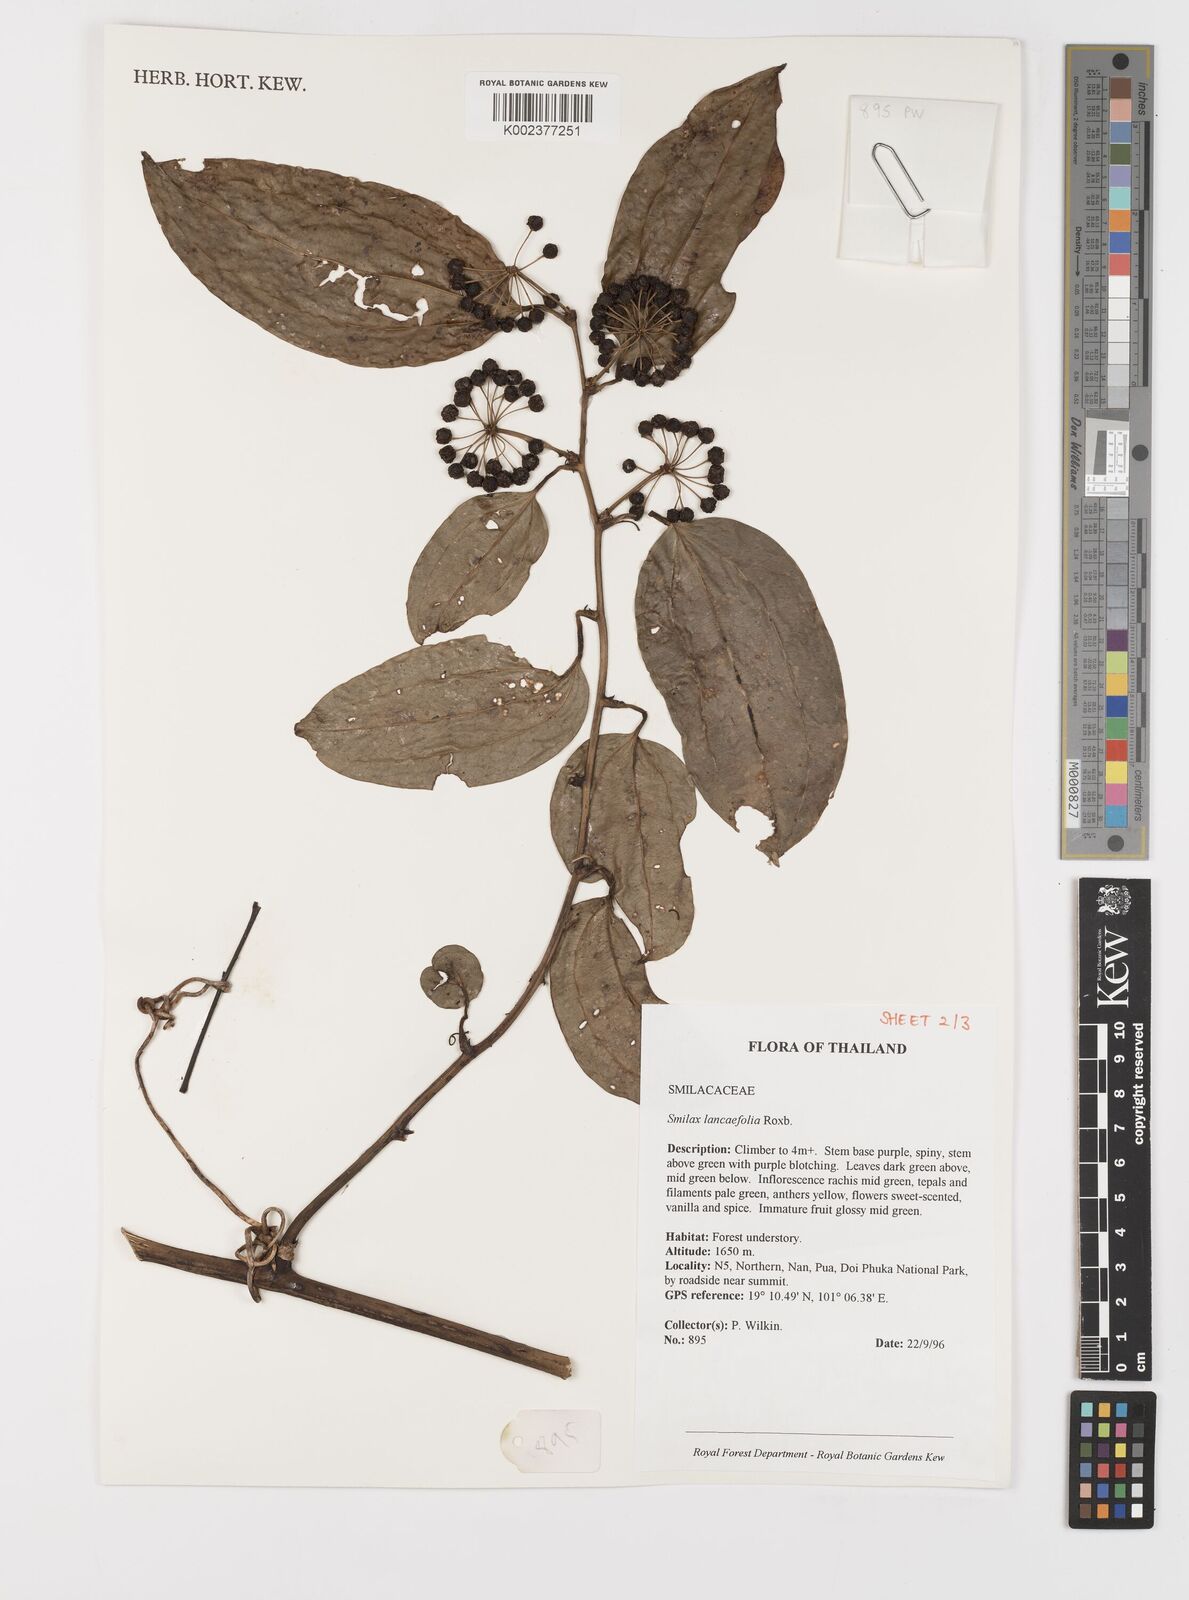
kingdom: Plantae
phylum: Tracheophyta
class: Liliopsida
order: Liliales
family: Smilacaceae
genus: Smilax
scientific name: Smilax lanceifolia
